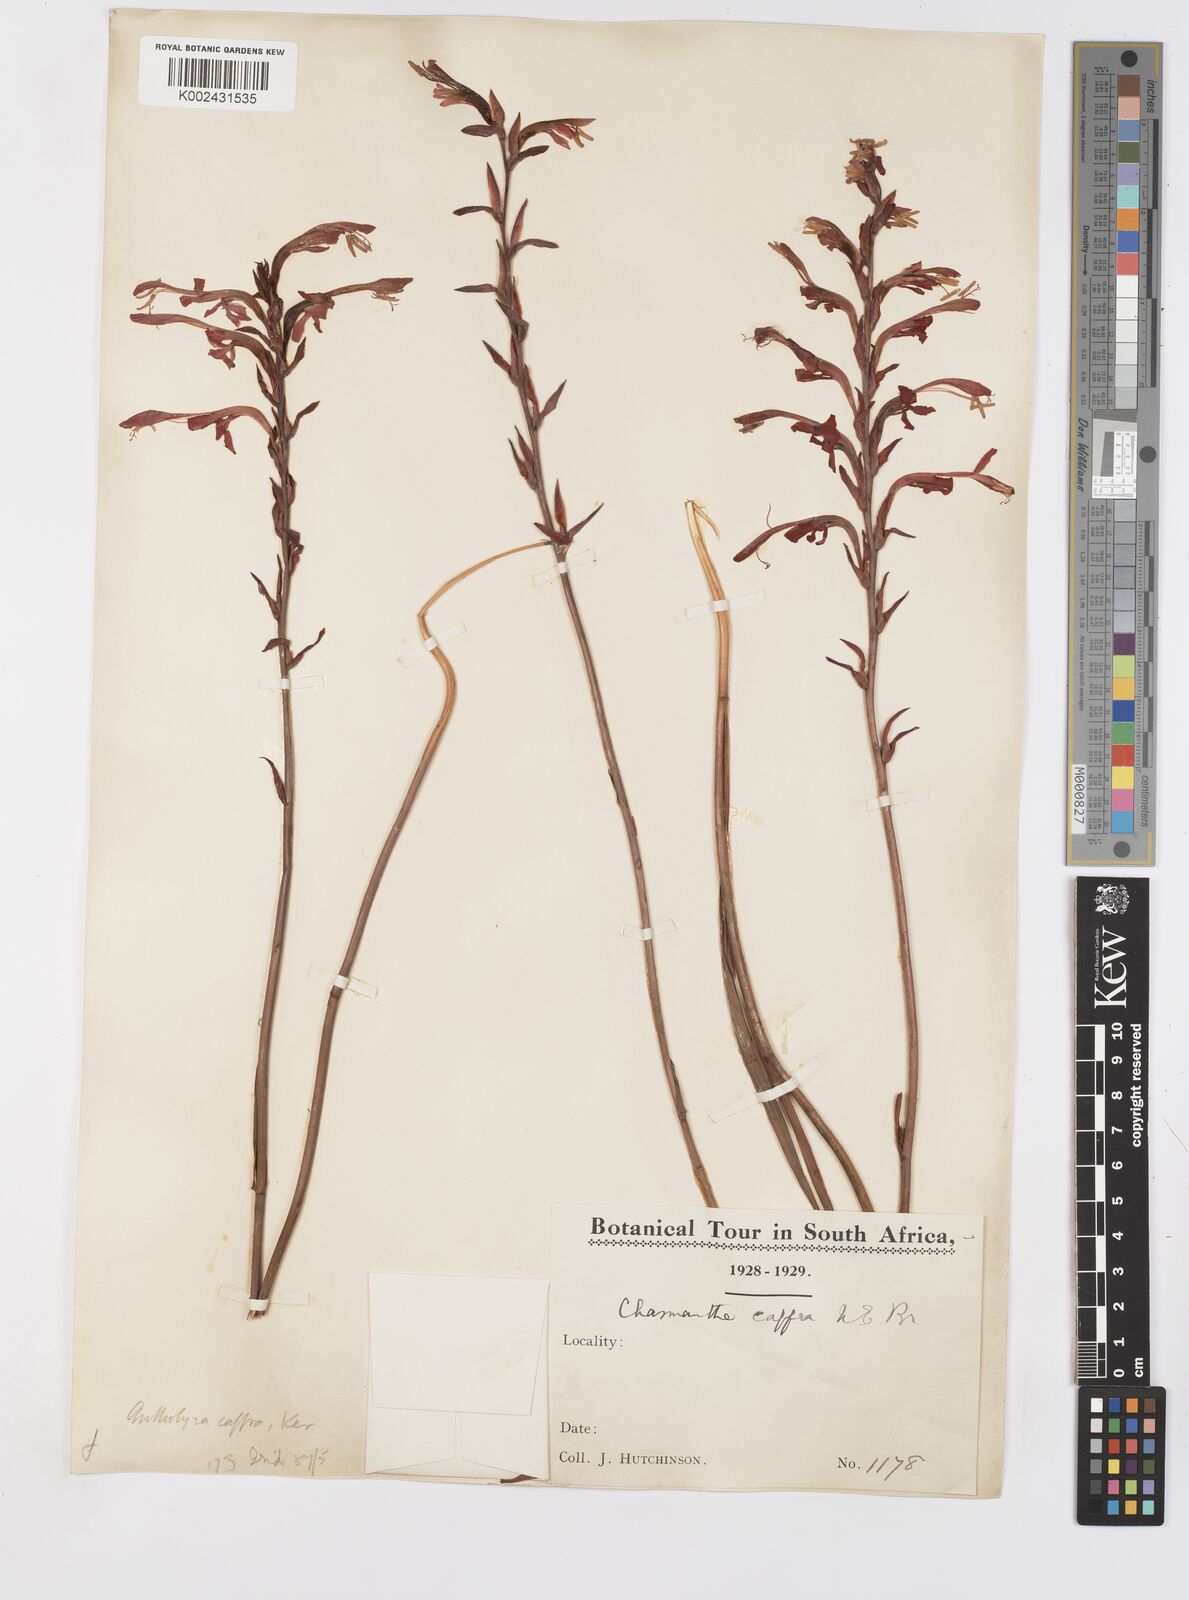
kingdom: Plantae
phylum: Tracheophyta
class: Liliopsida
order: Asparagales
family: Iridaceae
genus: Tritoniopsis
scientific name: Tritoniopsis caffra
